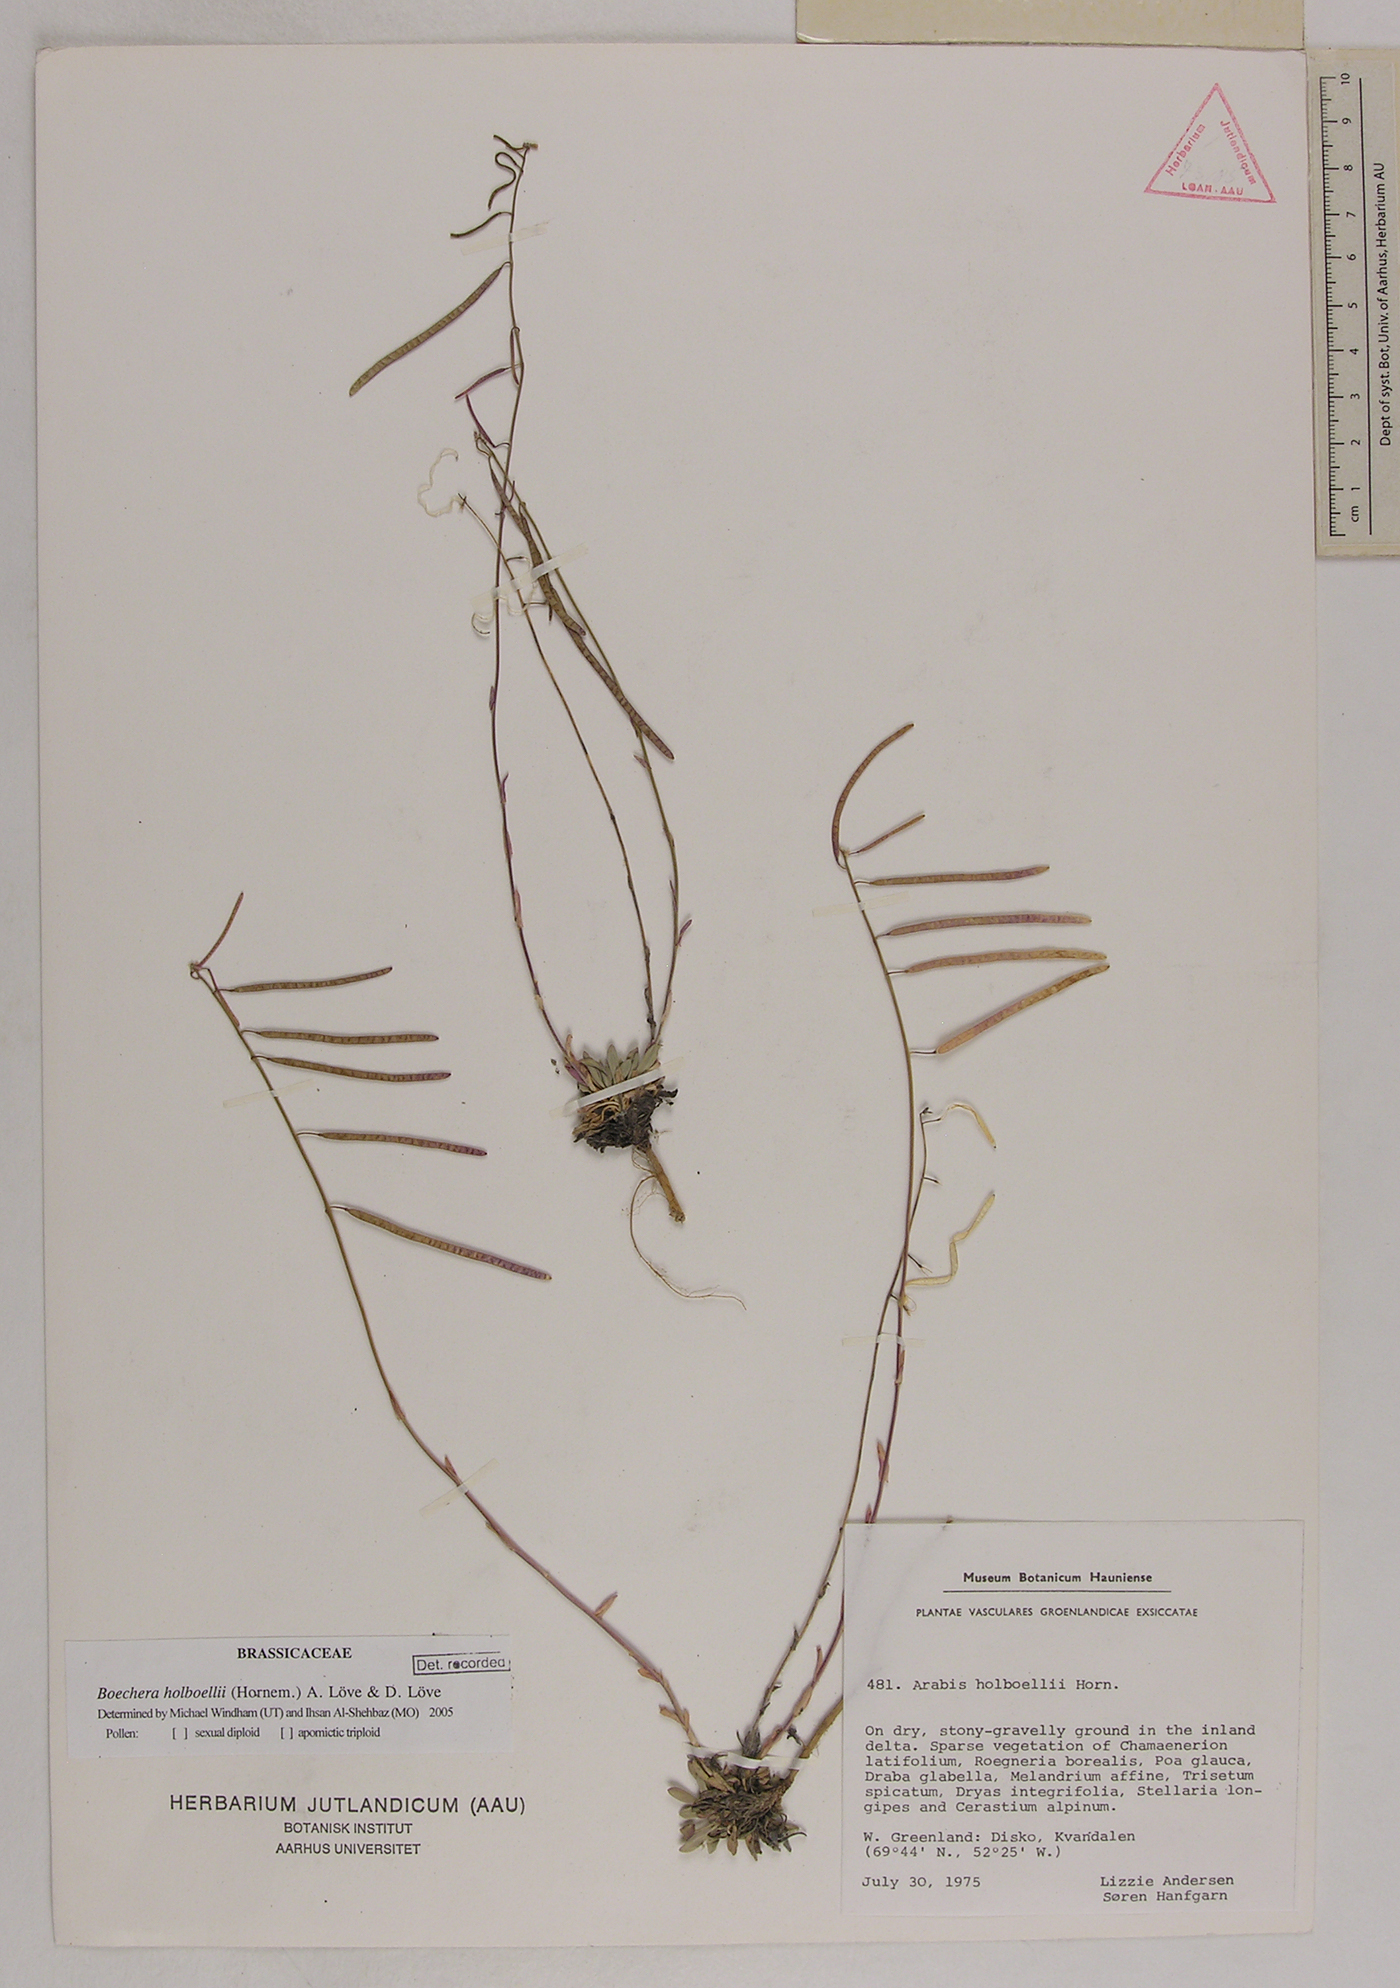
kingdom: Plantae
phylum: Tracheophyta
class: Magnoliopsida
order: Brassicales
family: Brassicaceae
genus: Boechera
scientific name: Boechera holboellii
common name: Holboell's rockcress
